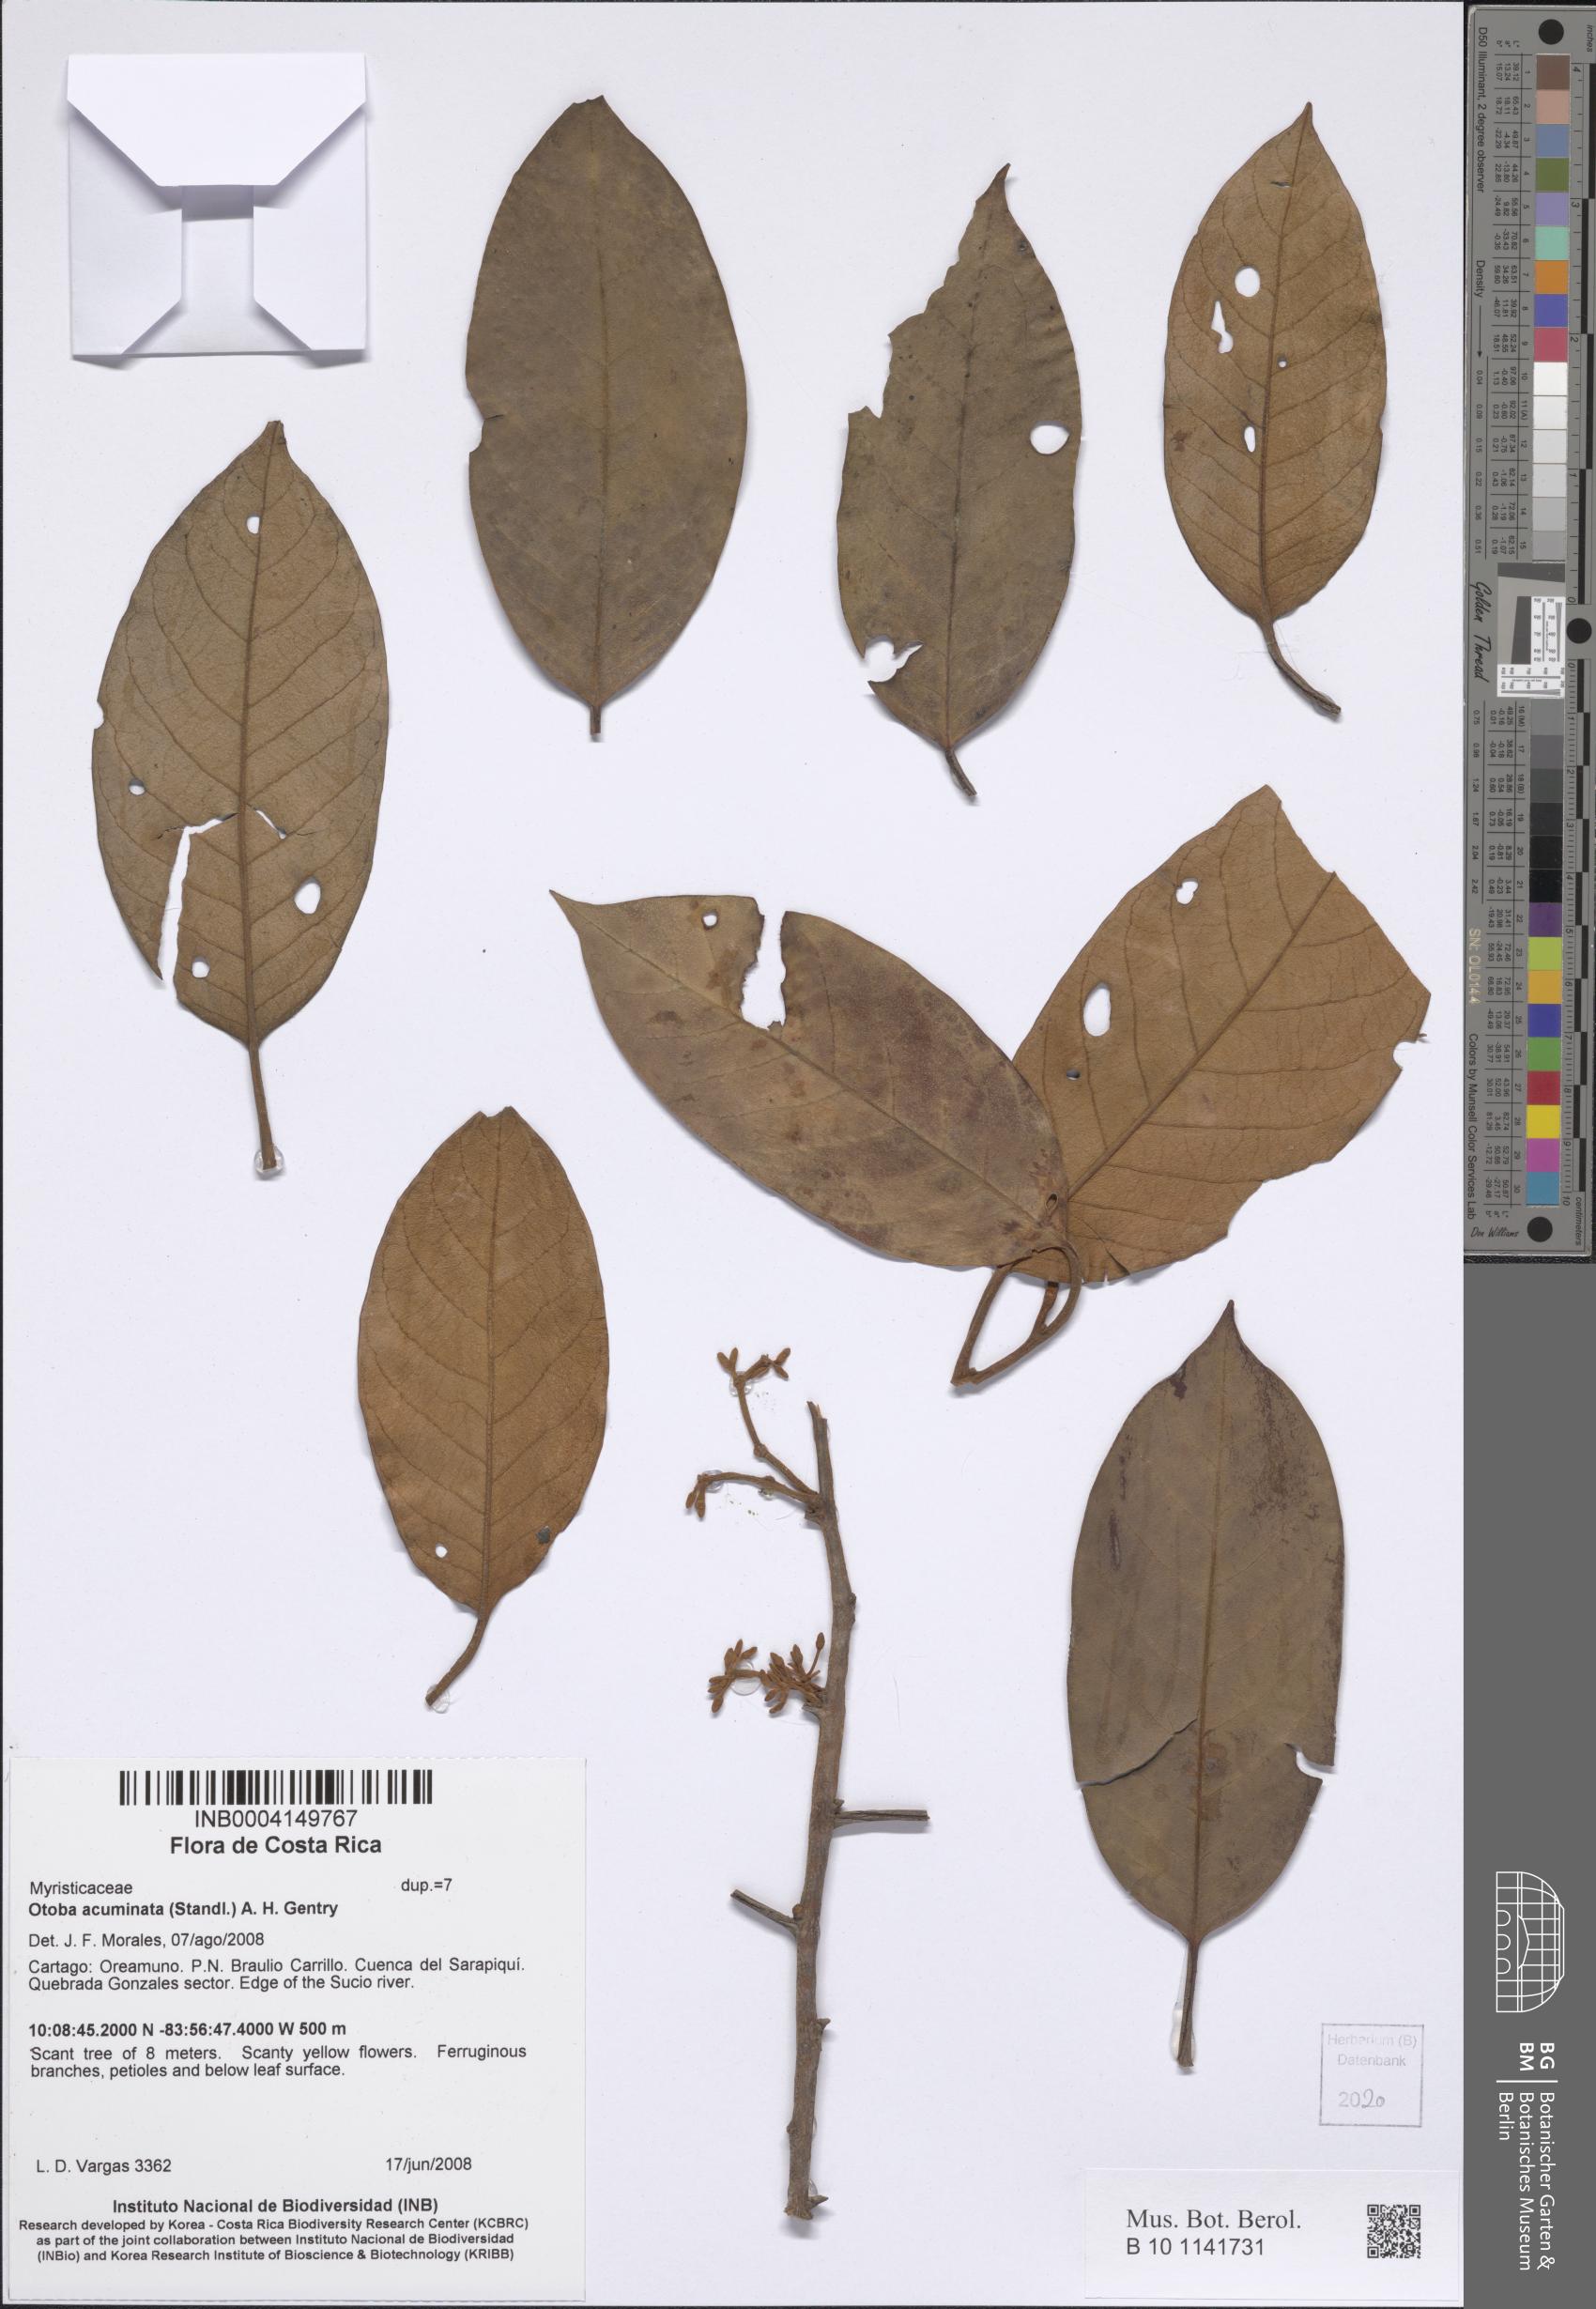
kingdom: Plantae
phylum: Tracheophyta
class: Magnoliopsida
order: Magnoliales
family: Myristicaceae
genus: Otoba
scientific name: Otoba acuminata
